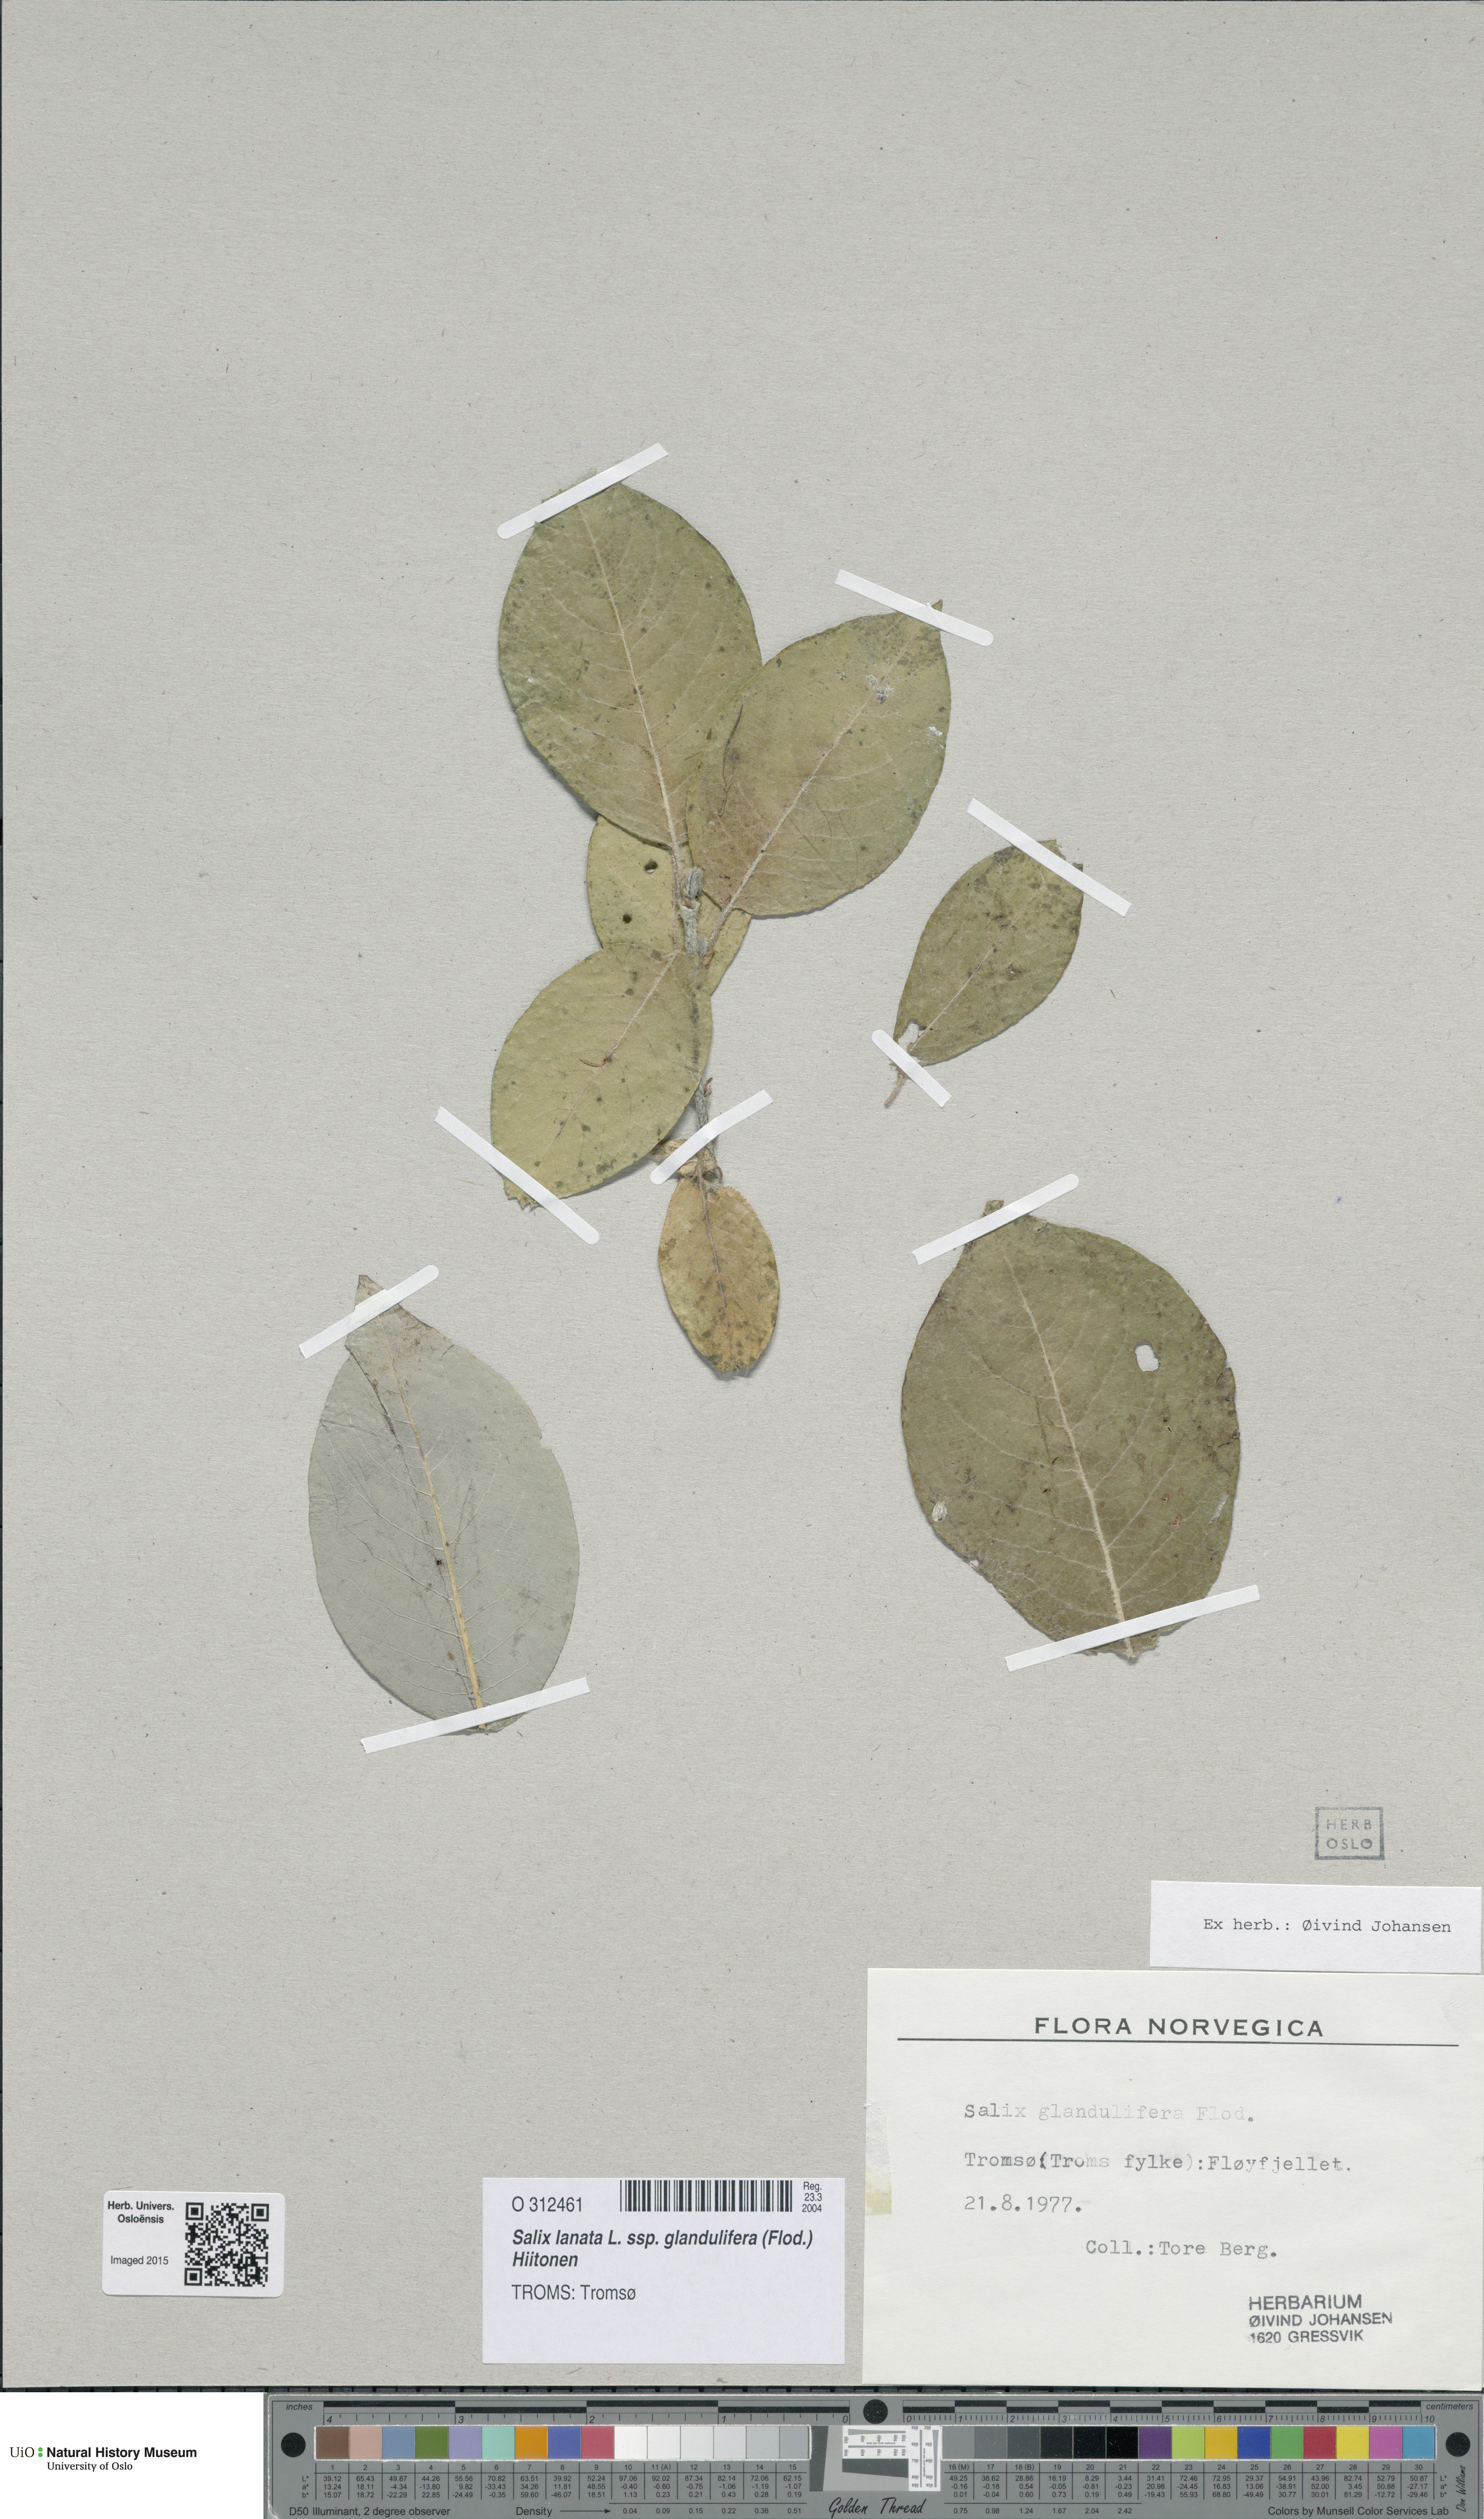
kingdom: Plantae
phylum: Tracheophyta
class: Magnoliopsida
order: Malpighiales
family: Salicaceae
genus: Salix
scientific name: Salix lanata
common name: Woolly willow
